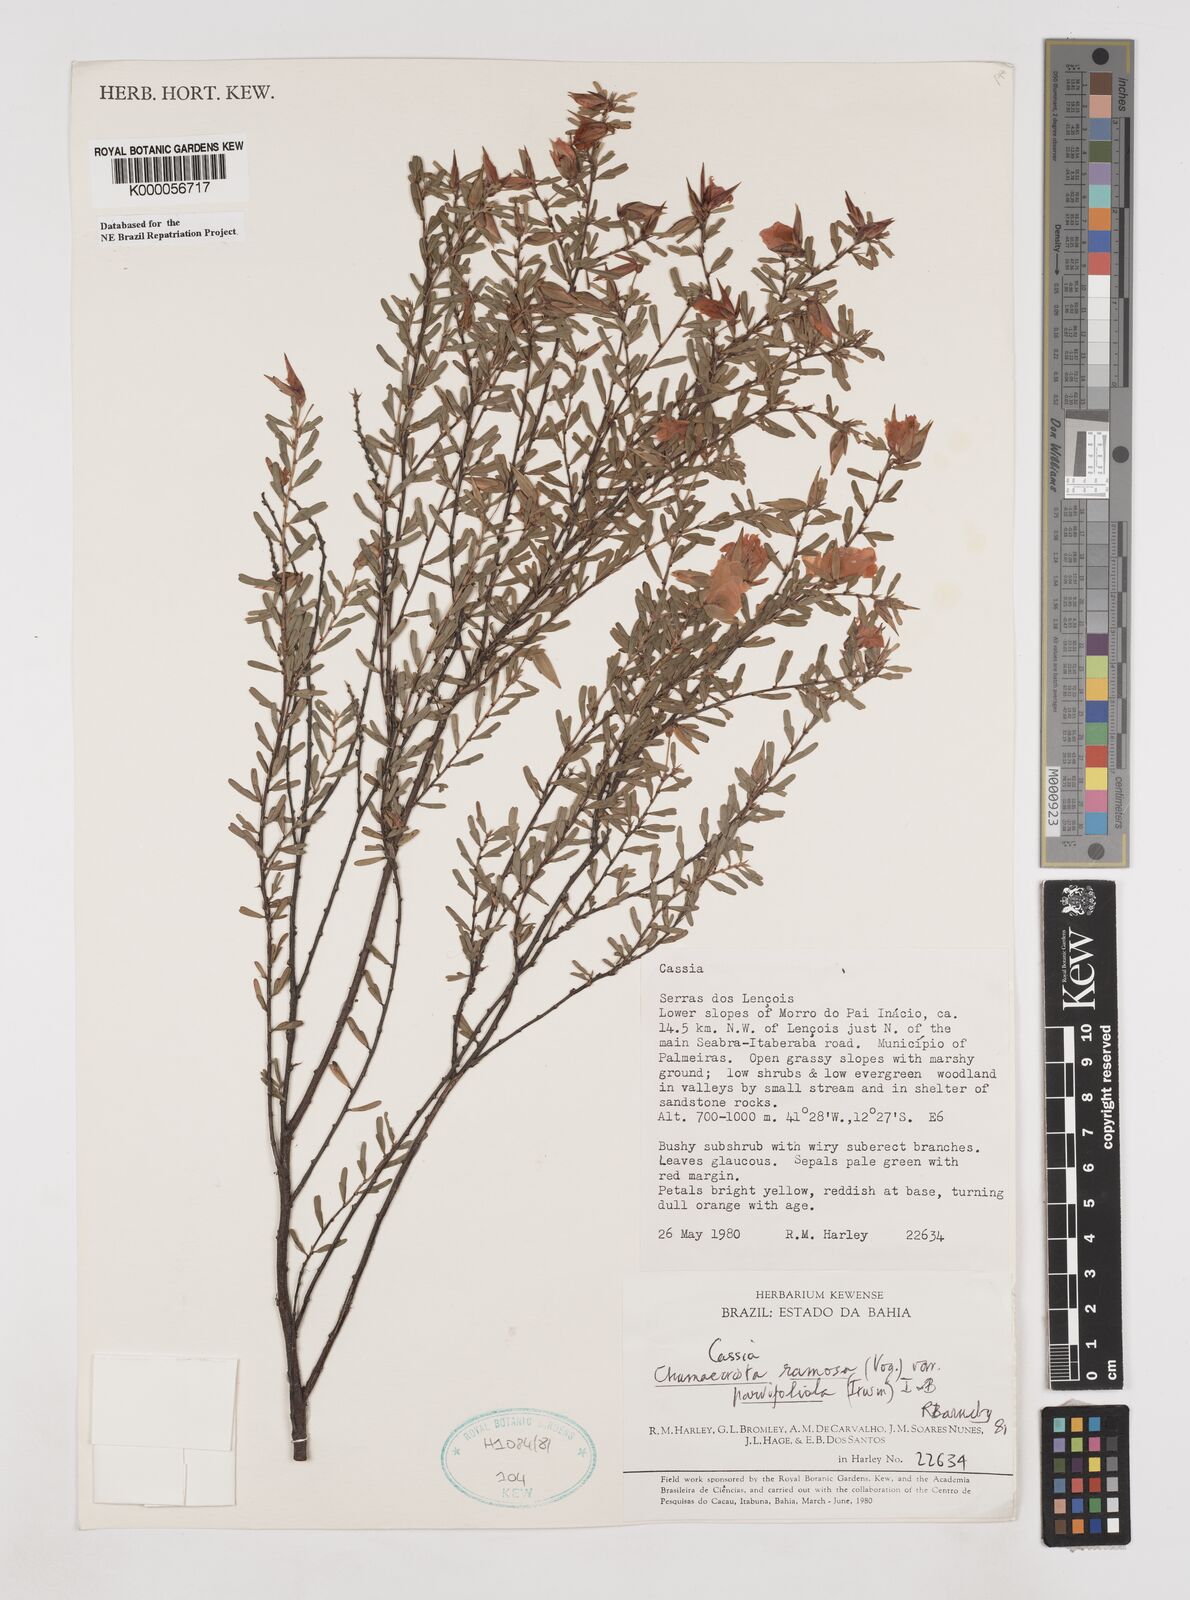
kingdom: Plantae
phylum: Tracheophyta
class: Magnoliopsida
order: Fabales
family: Fabaceae
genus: Chamaecrista
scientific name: Chamaecrista ramosa
